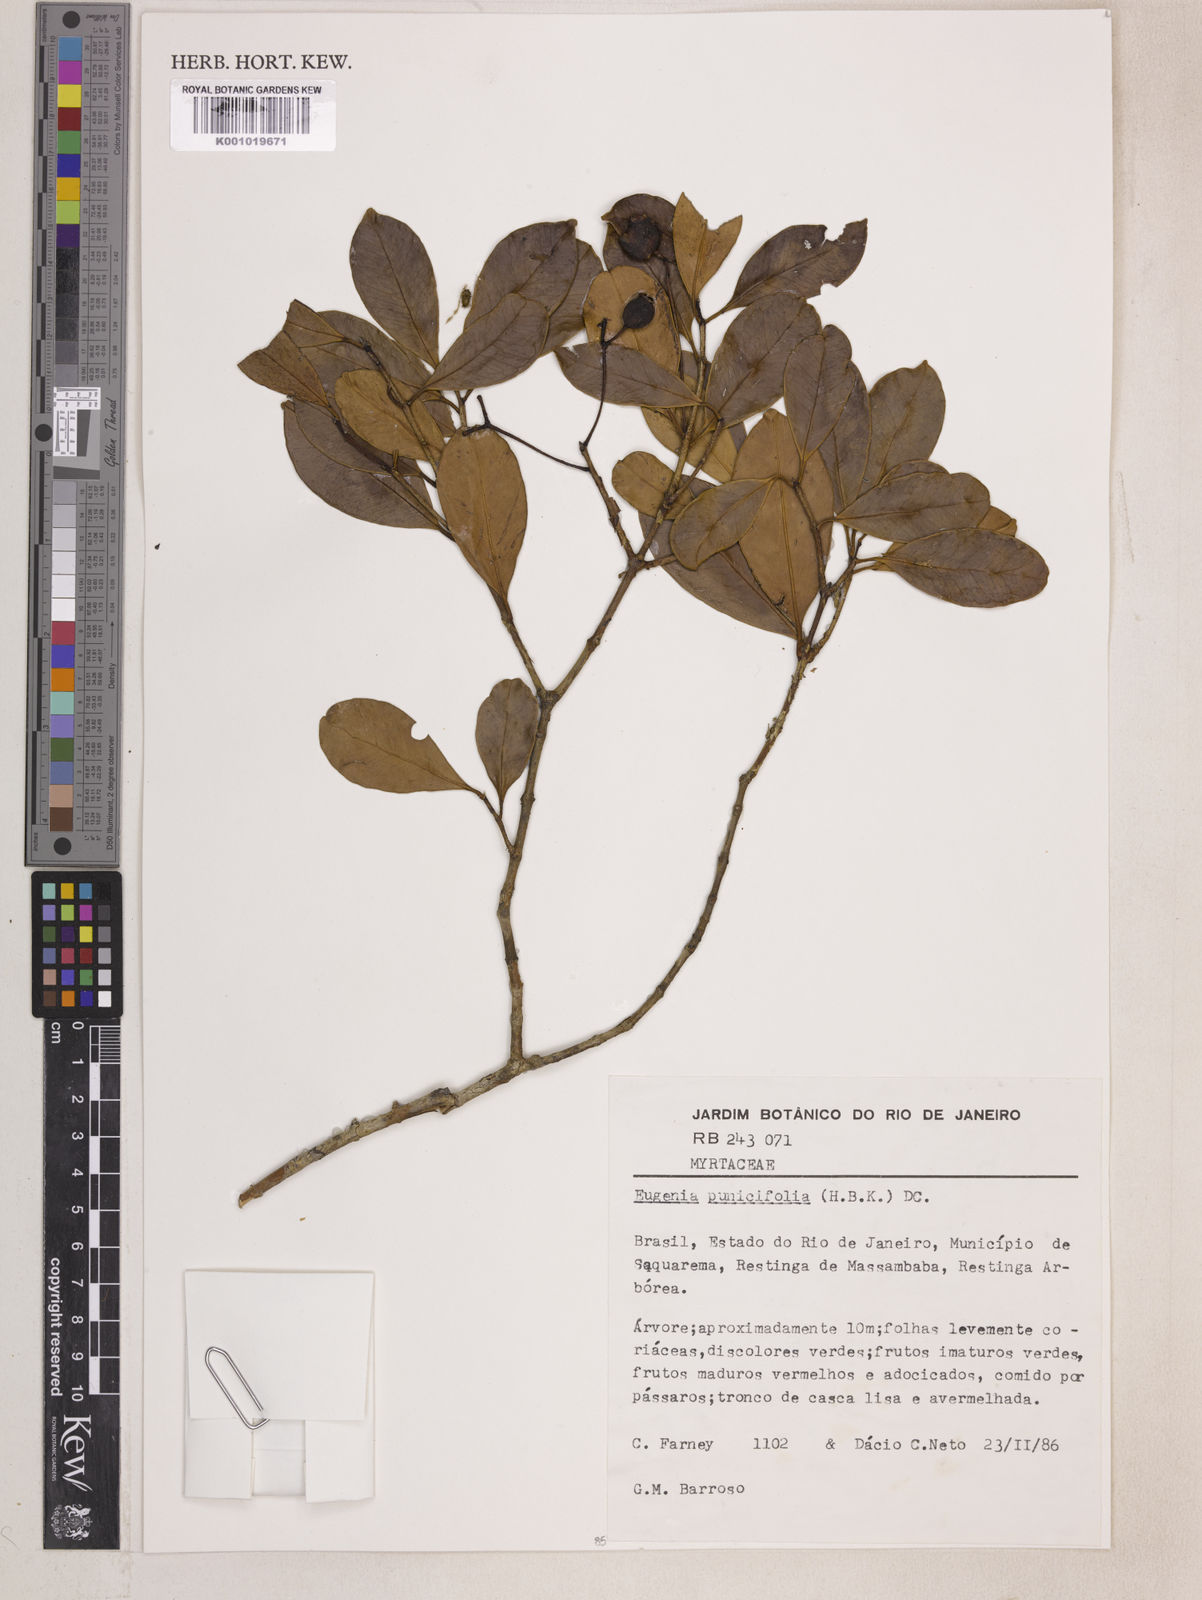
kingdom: Plantae
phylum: Tracheophyta
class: Magnoliopsida
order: Myrtales
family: Myrtaceae
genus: Eugenia
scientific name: Eugenia punicifolia
